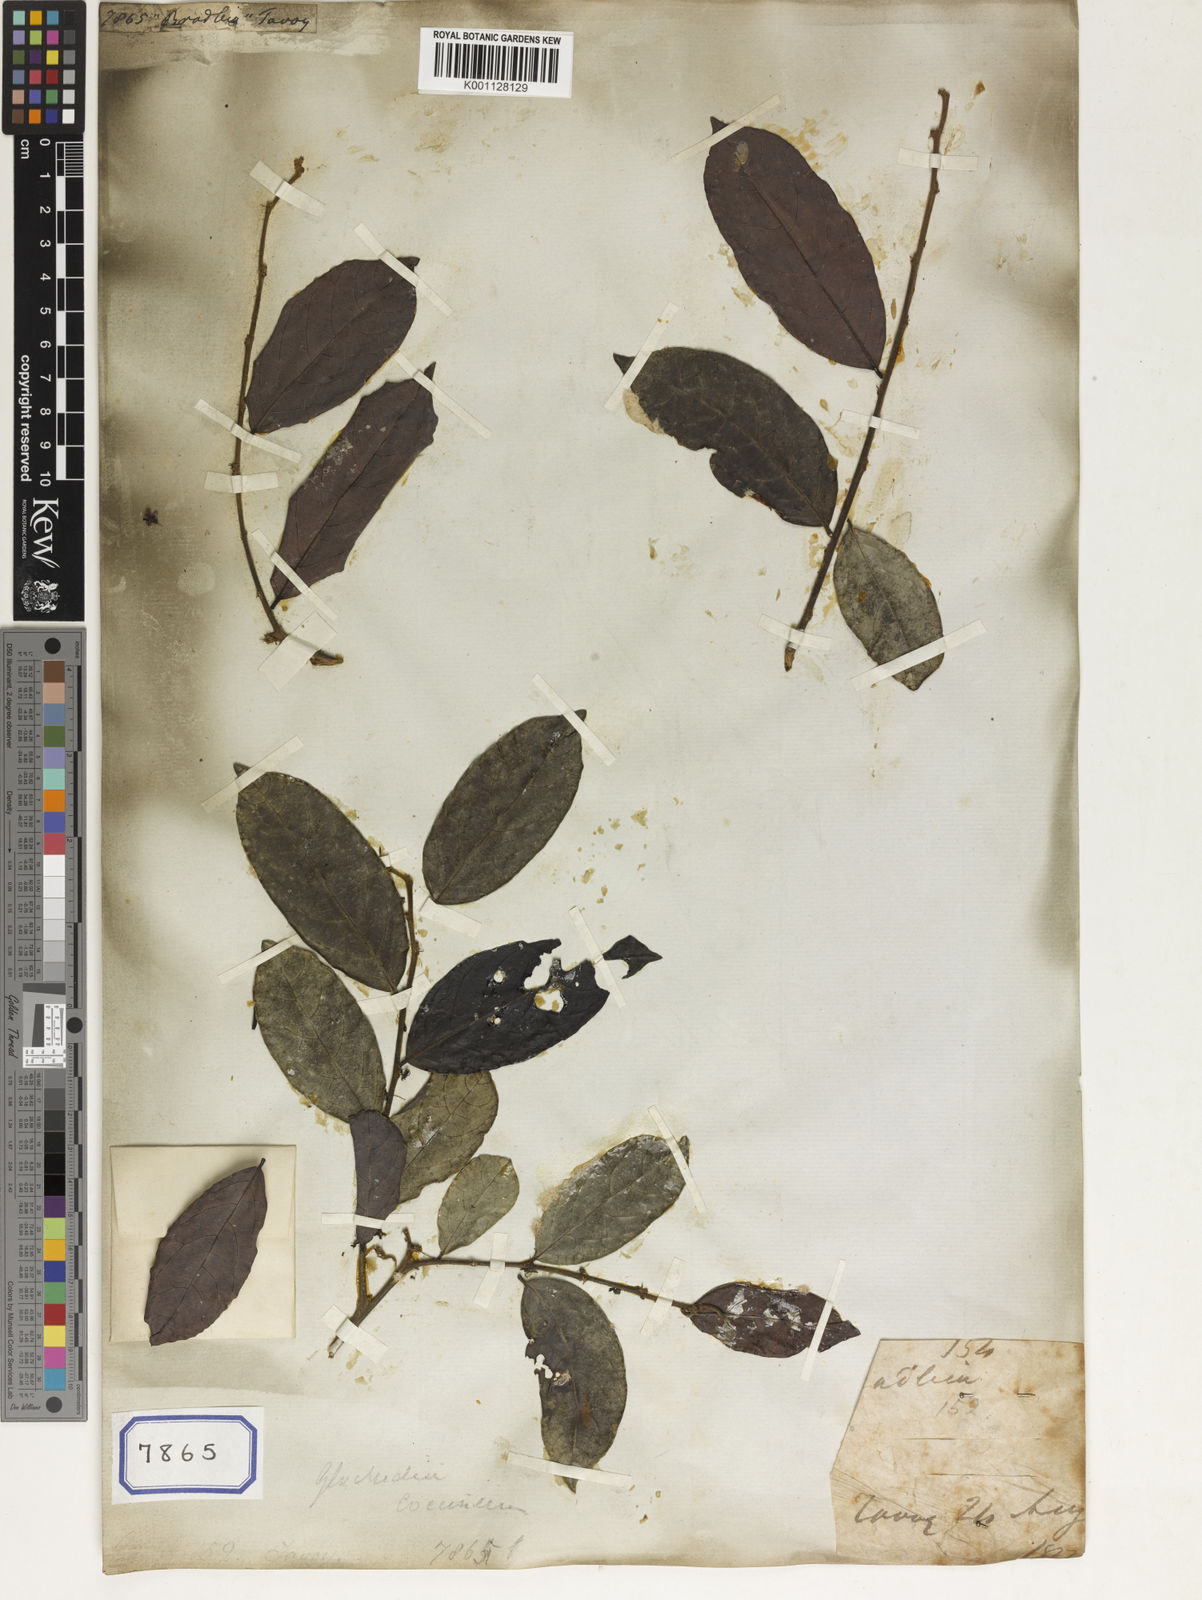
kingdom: Plantae
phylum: Tracheophyta
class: Magnoliopsida
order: Malpighiales
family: Euphorbiaceae
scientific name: Euphorbiaceae
